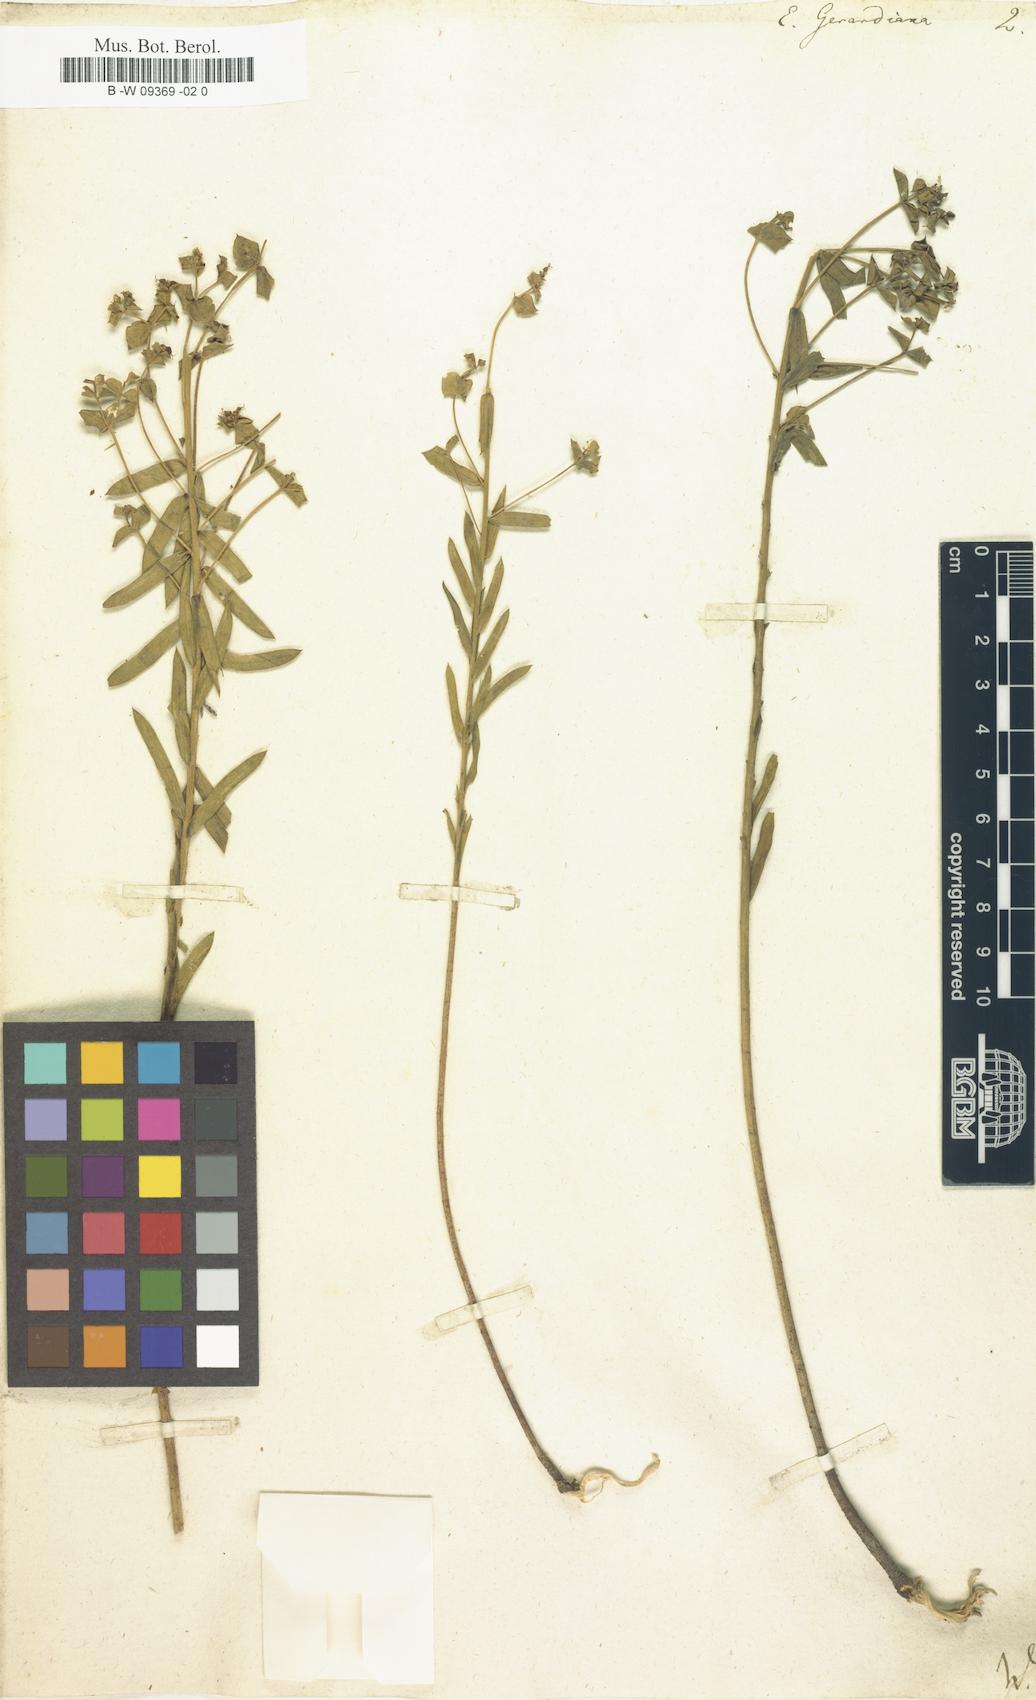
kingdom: Plantae
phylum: Tracheophyta
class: Magnoliopsida
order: Malpighiales
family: Euphorbiaceae
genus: Euphorbia
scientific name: Euphorbia seguieriana
